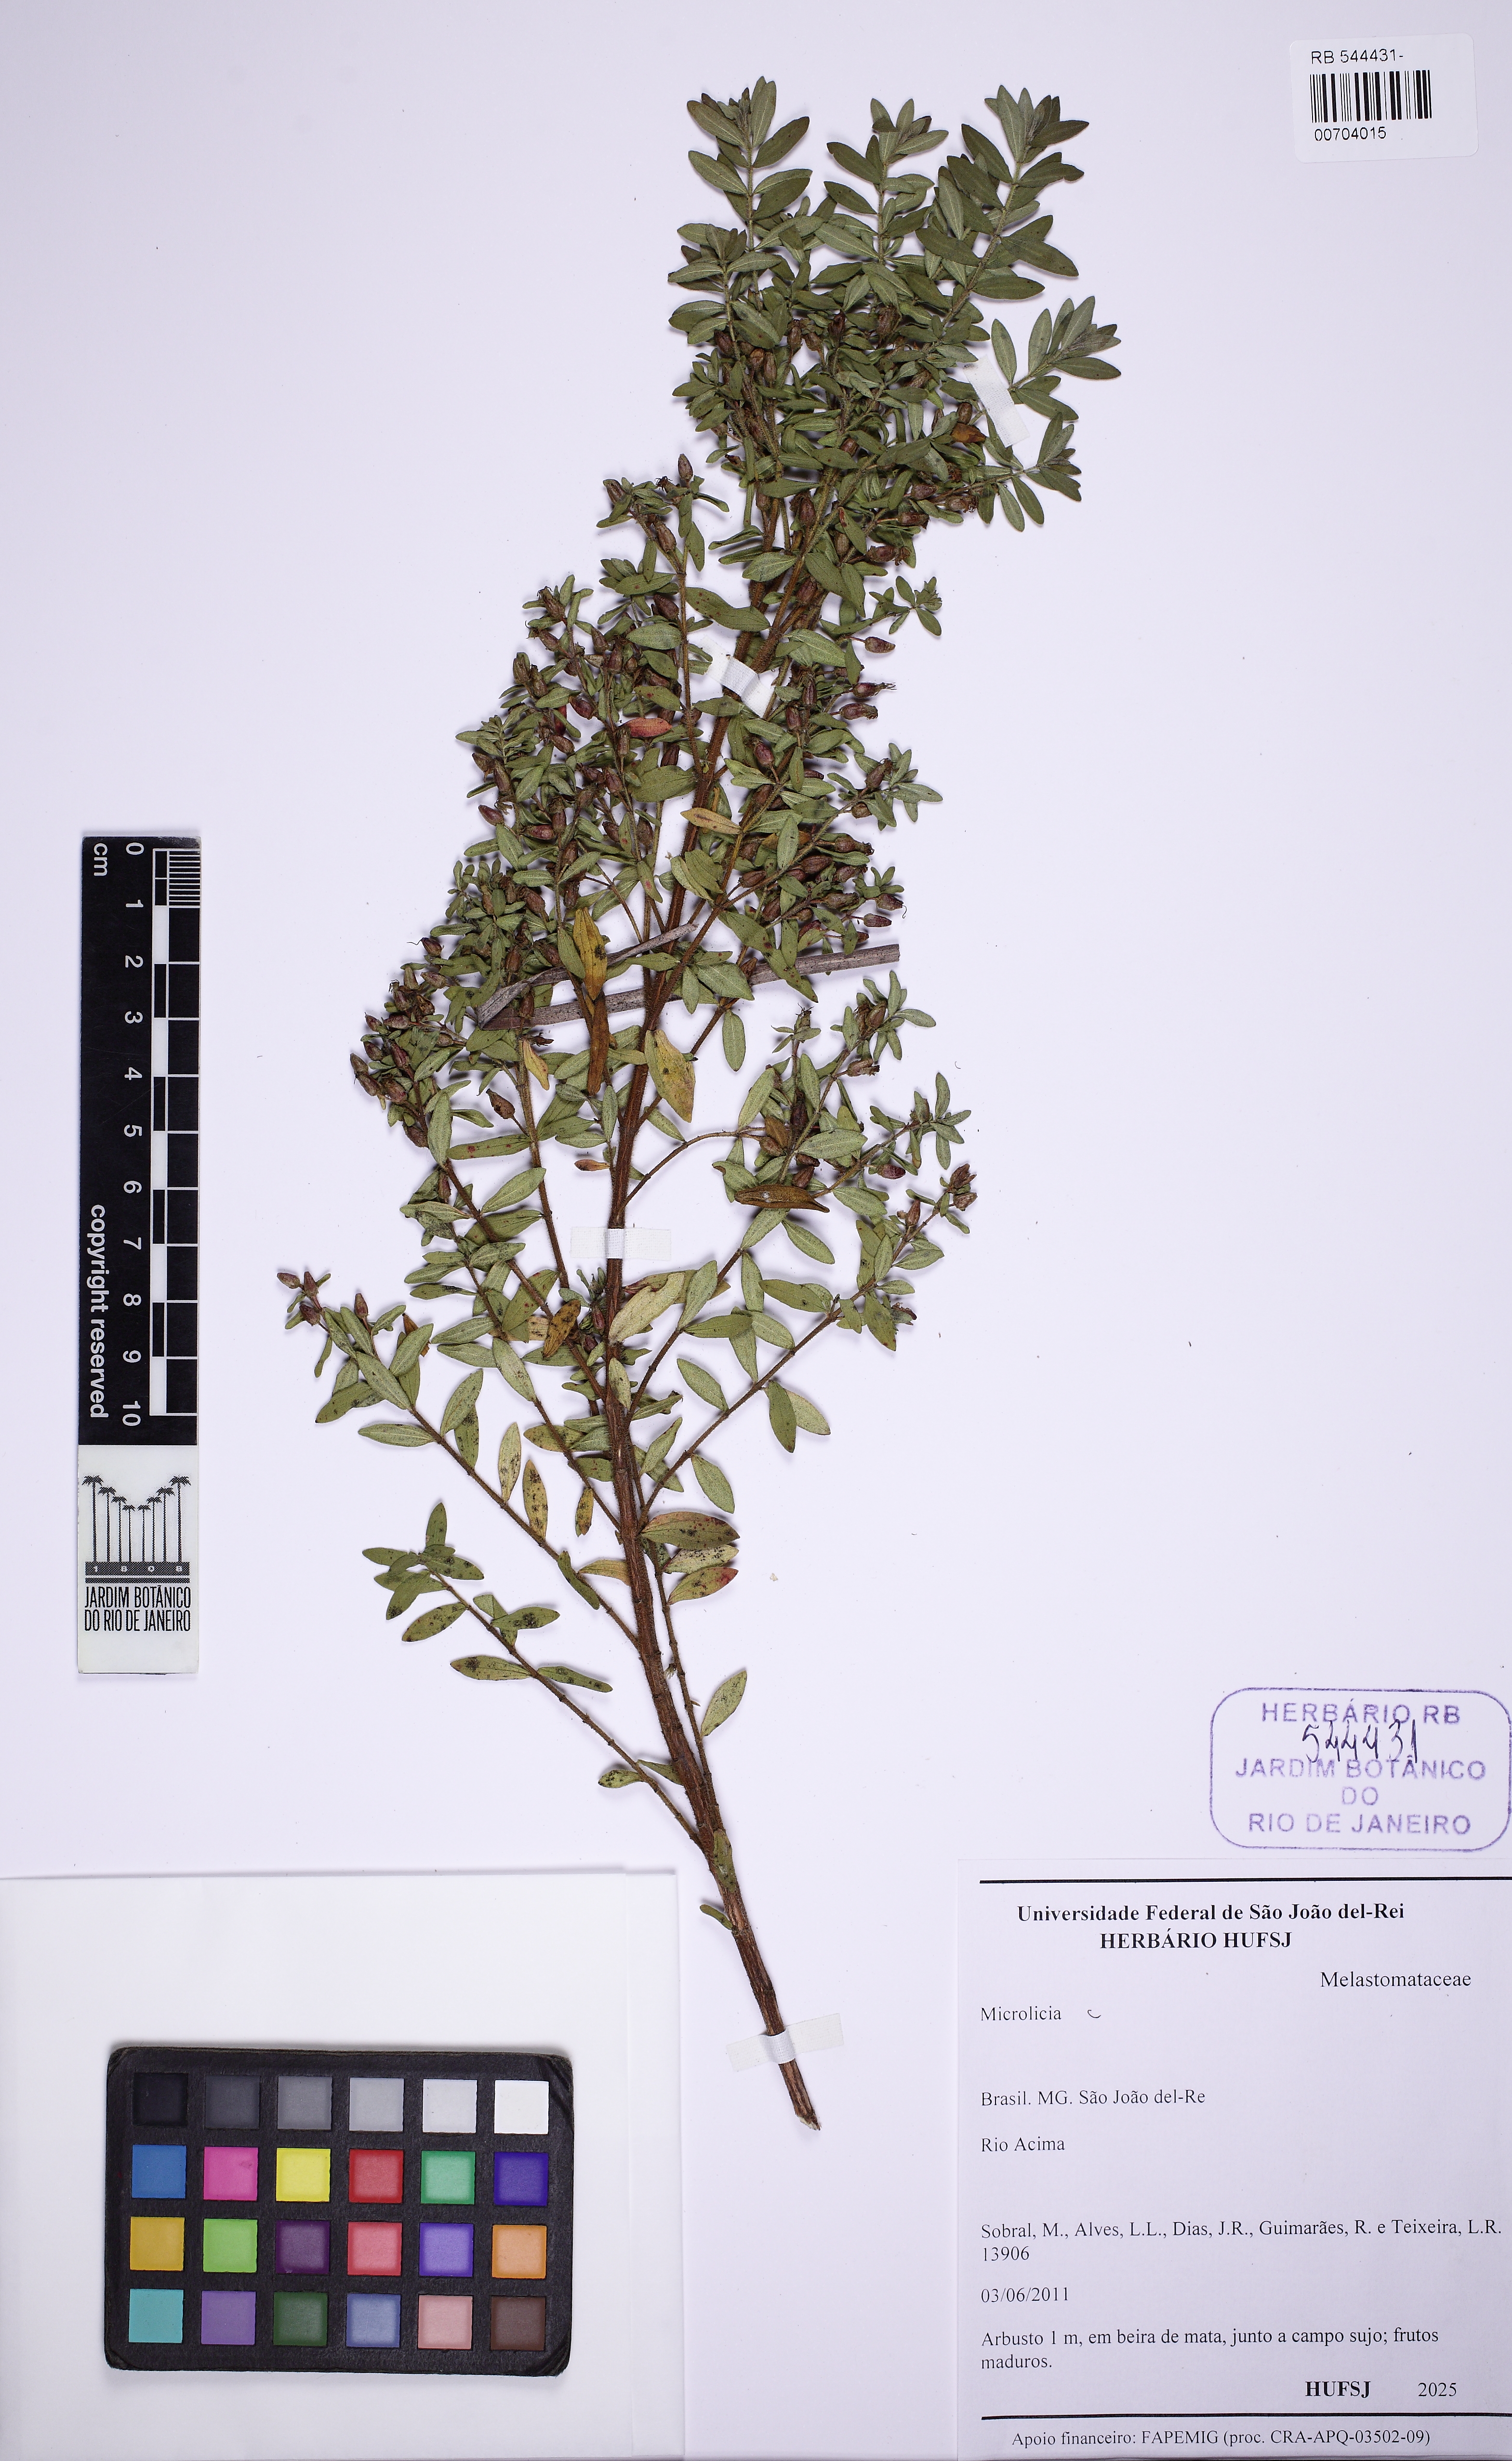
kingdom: Plantae
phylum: Tracheophyta
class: Magnoliopsida
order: Myrtales
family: Melastomataceae
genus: Microlicia
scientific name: Microlicia euphorbioides
